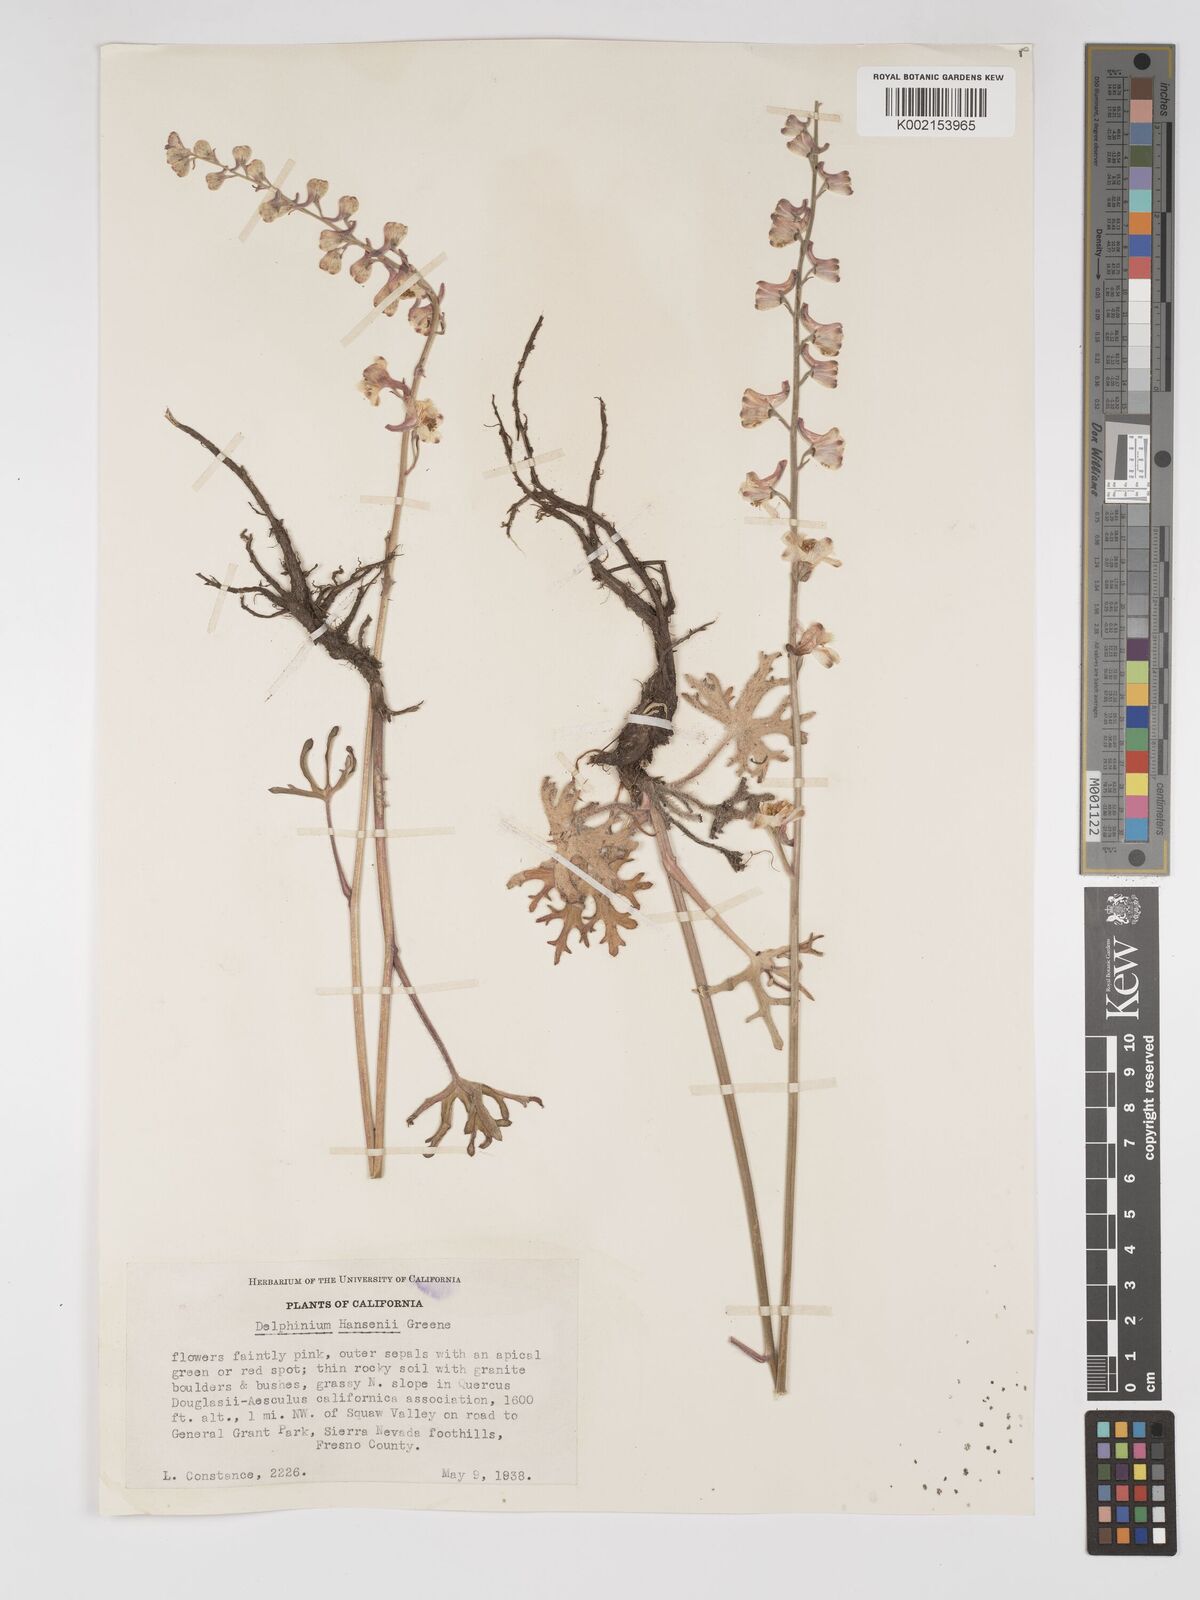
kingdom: Plantae
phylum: Tracheophyta
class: Magnoliopsida
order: Ranunculales
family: Ranunculaceae
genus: Delphinium
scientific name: Delphinium hansenii
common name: Hansen's larkspur
